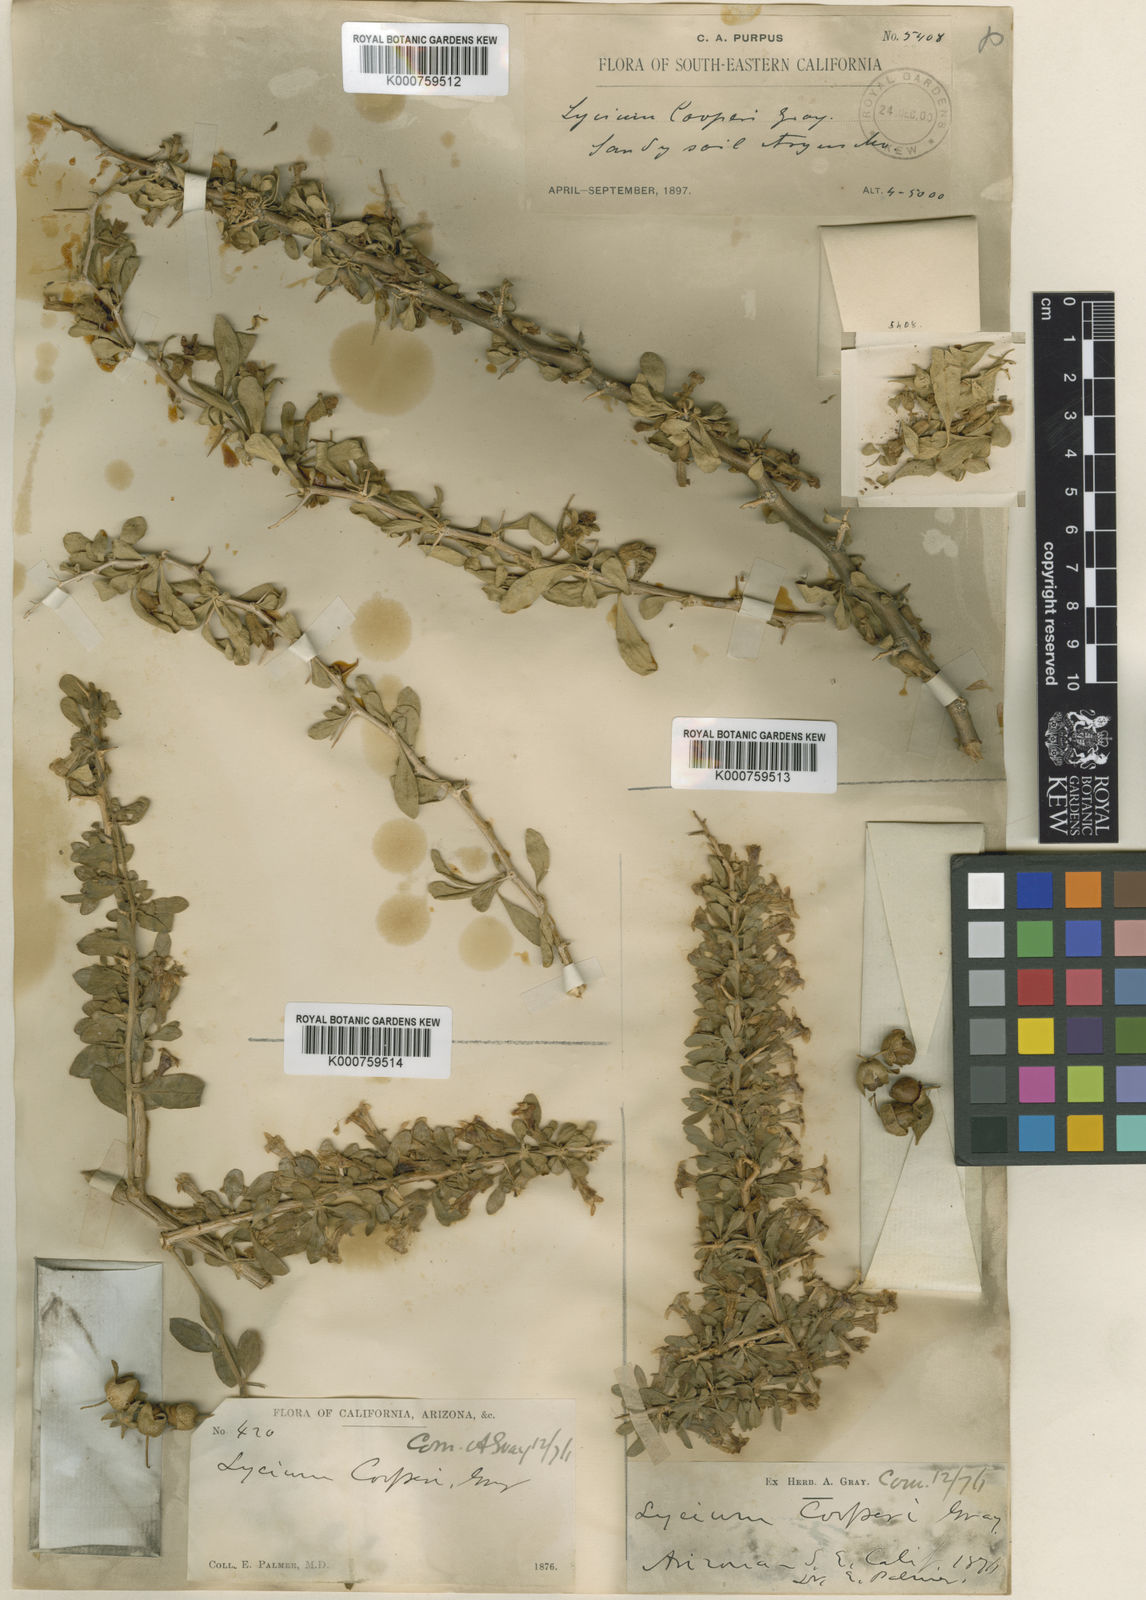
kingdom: Plantae
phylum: Tracheophyta
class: Magnoliopsida
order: Solanales
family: Solanaceae
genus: Lycium
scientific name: Lycium cooperi
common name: Peachthorn
